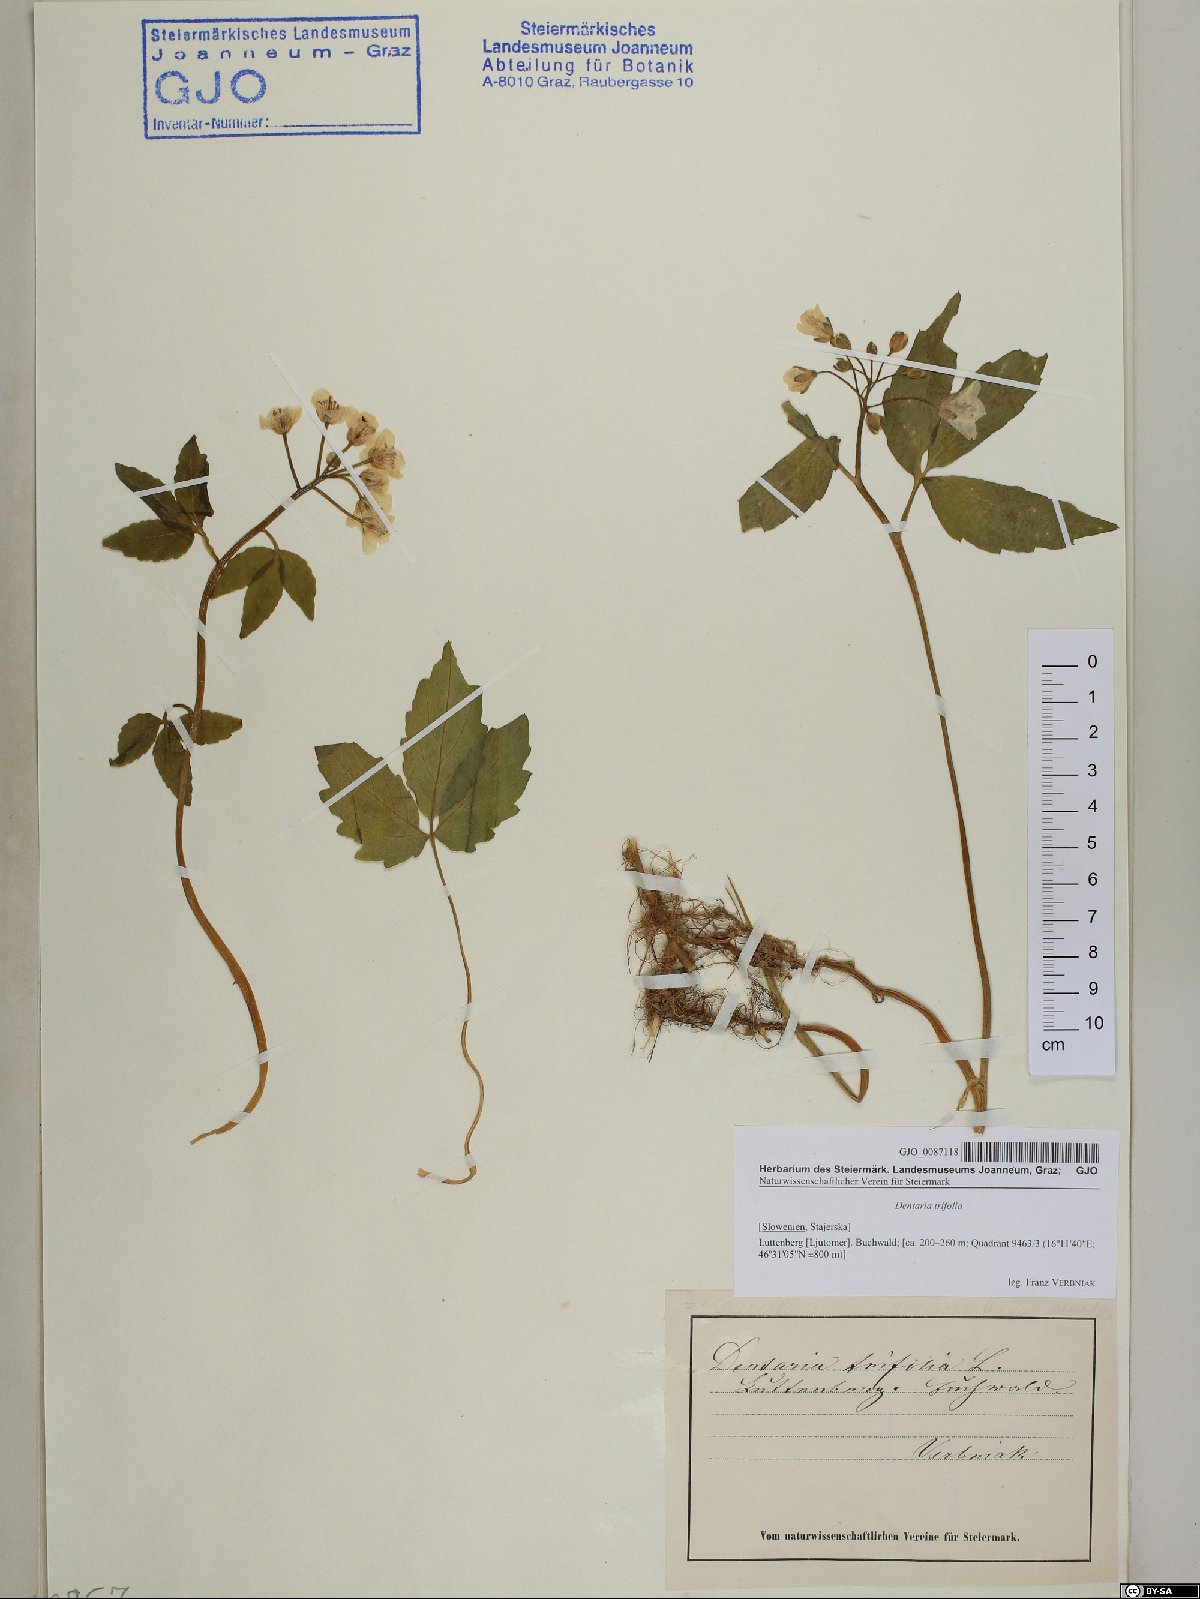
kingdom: Plantae
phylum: Tracheophyta
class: Magnoliopsida
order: Brassicales
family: Brassicaceae
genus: Cardamine
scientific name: Cardamine waldsteinii
